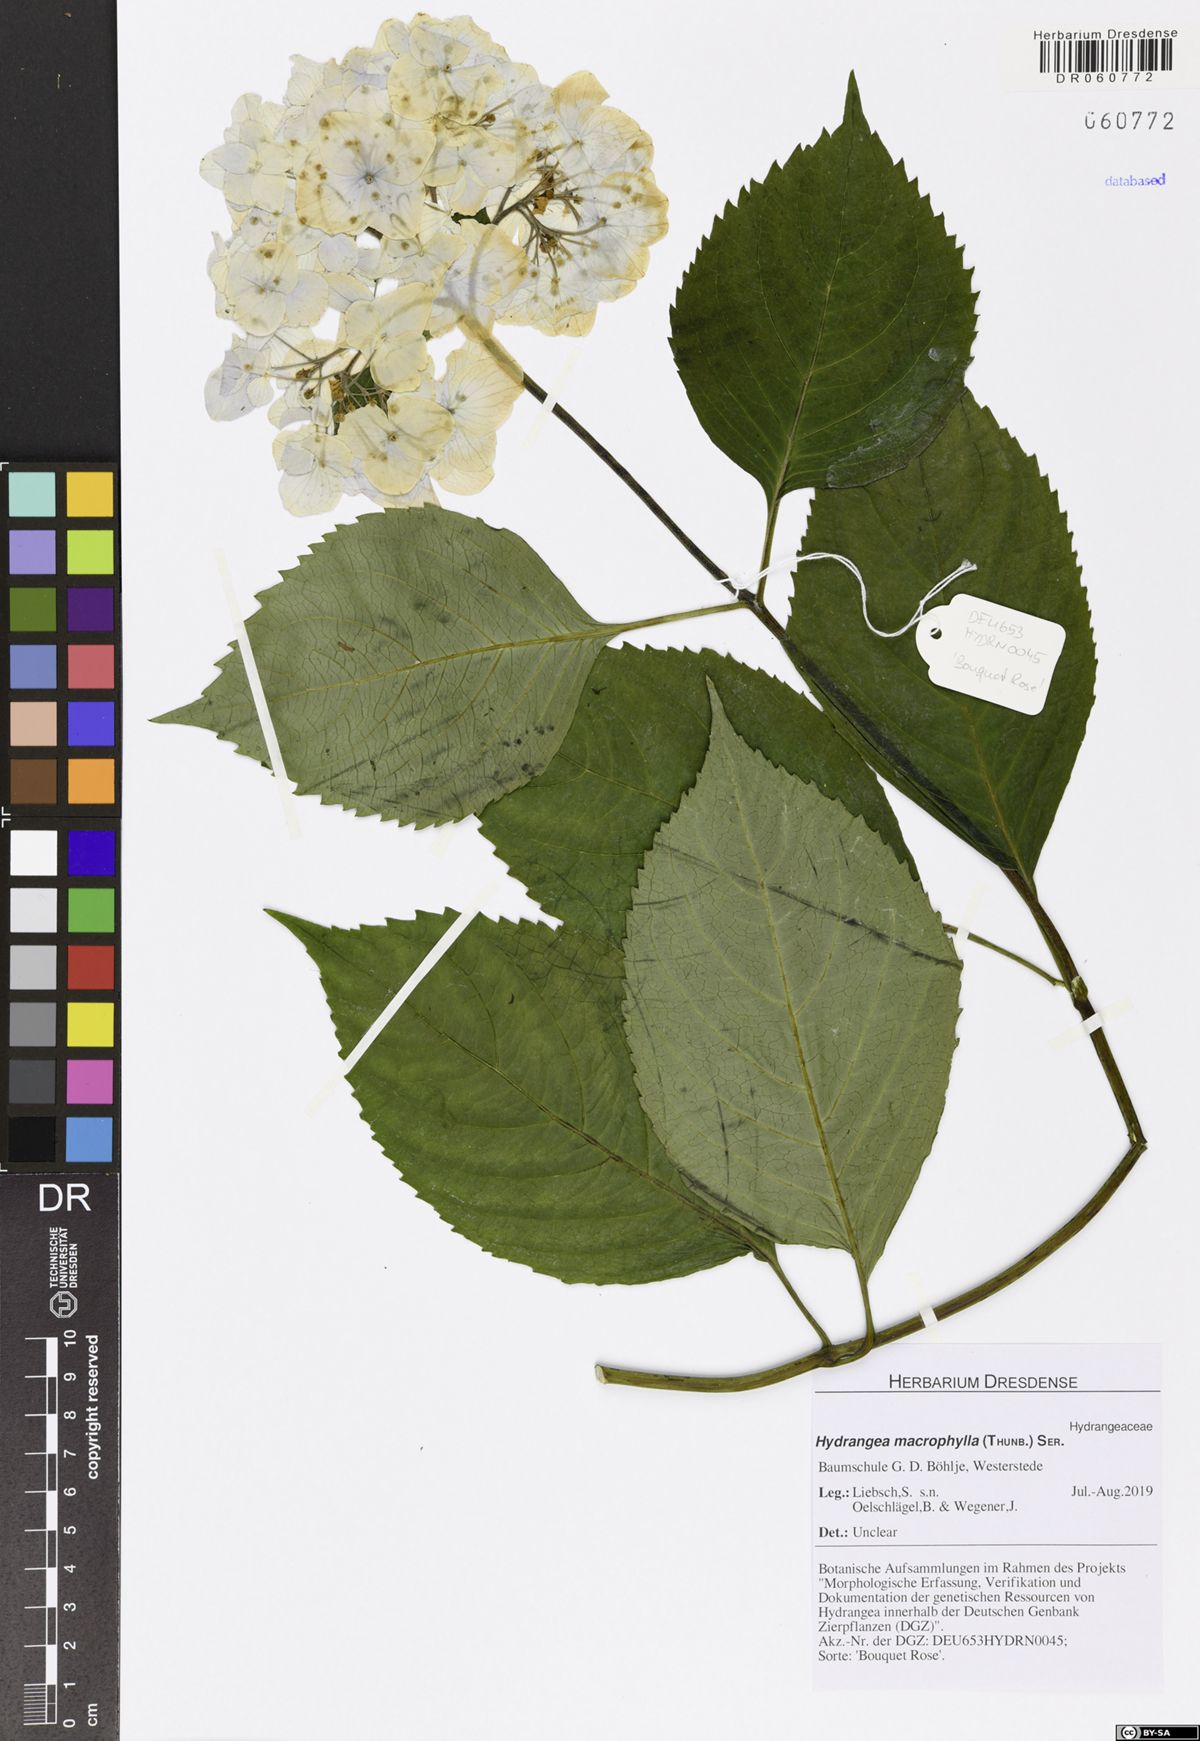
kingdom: Plantae
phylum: Tracheophyta
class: Magnoliopsida
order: Cornales
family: Hydrangeaceae
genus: Hydrangea
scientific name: Hydrangea macrophylla
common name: Hydrangea
